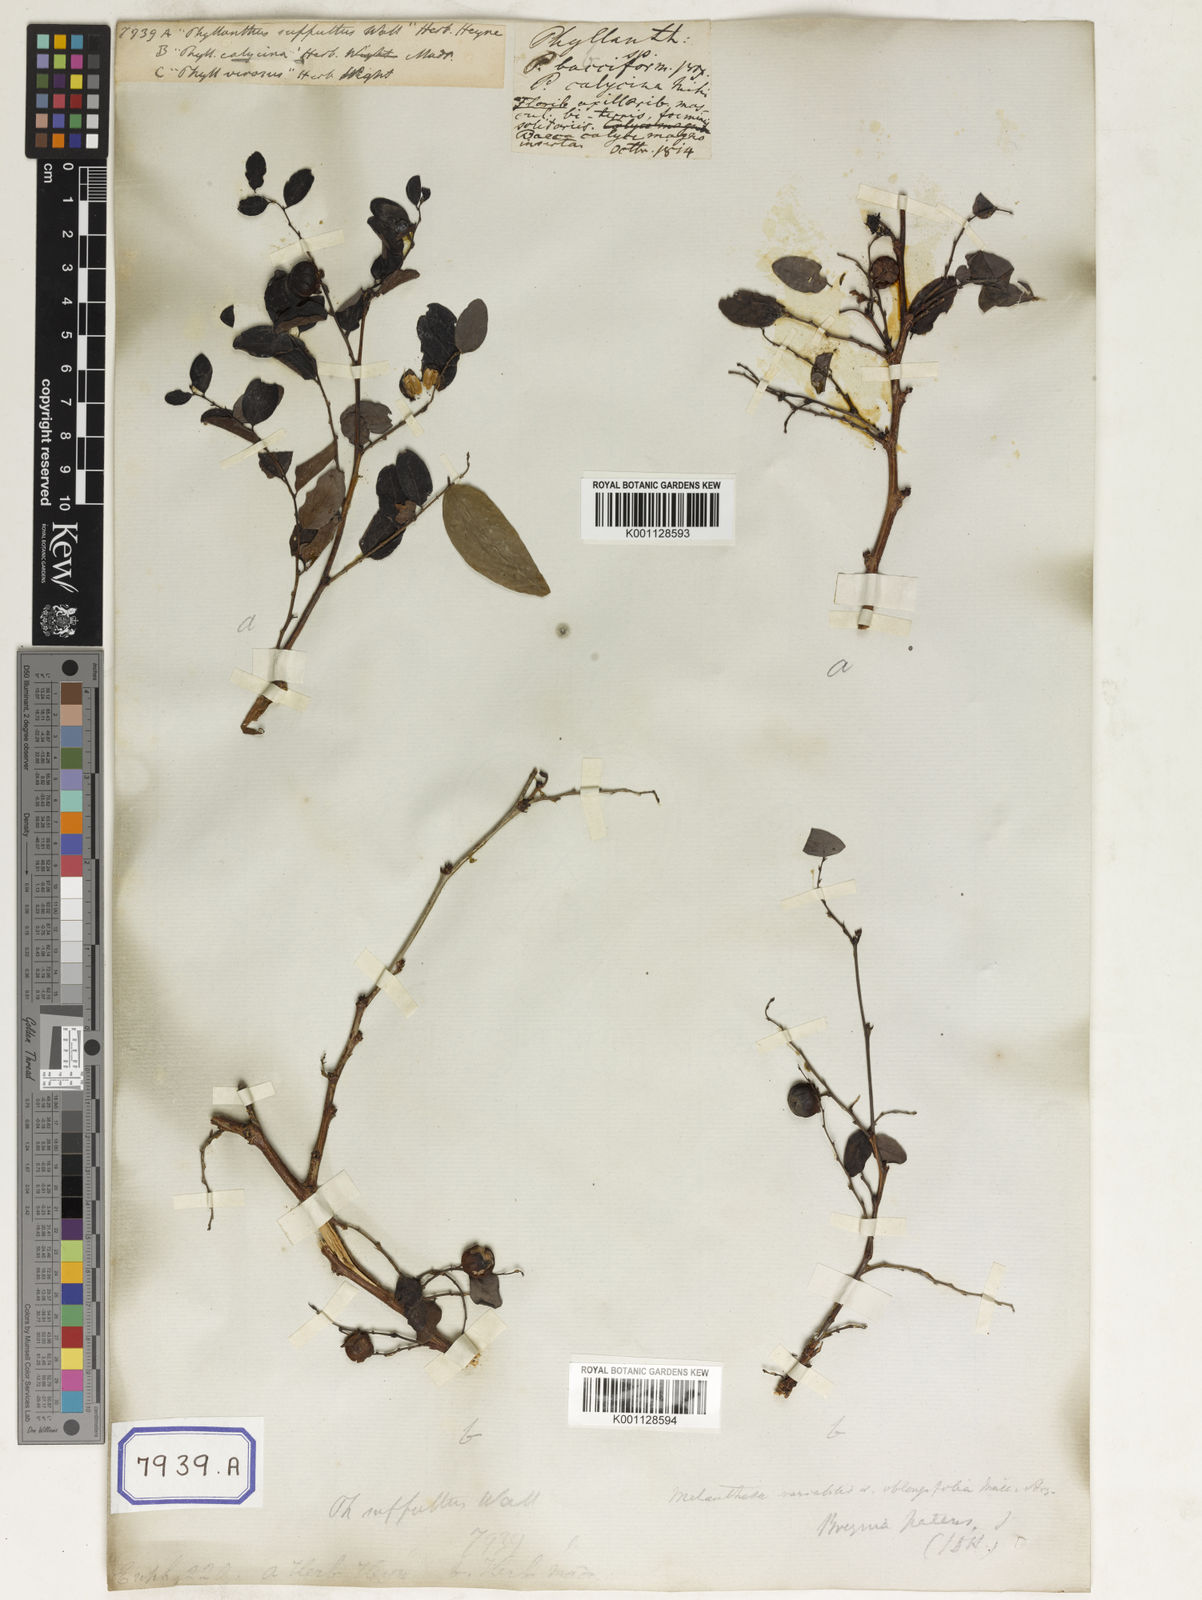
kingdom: Plantae
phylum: Tracheophyta
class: Magnoliopsida
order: Malpighiales
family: Euphorbiaceae
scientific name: Euphorbiaceae
